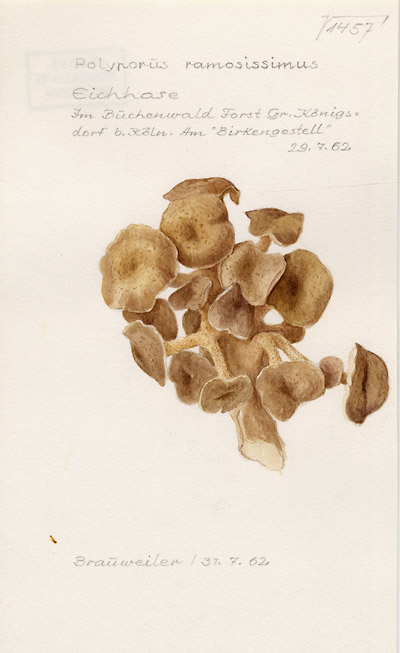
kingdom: Fungi
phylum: Basidiomycota
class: Agaricomycetes
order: Polyporales
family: Polyporaceae
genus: Polyporus
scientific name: Polyporus umbellatus
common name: Umbrella polypore
